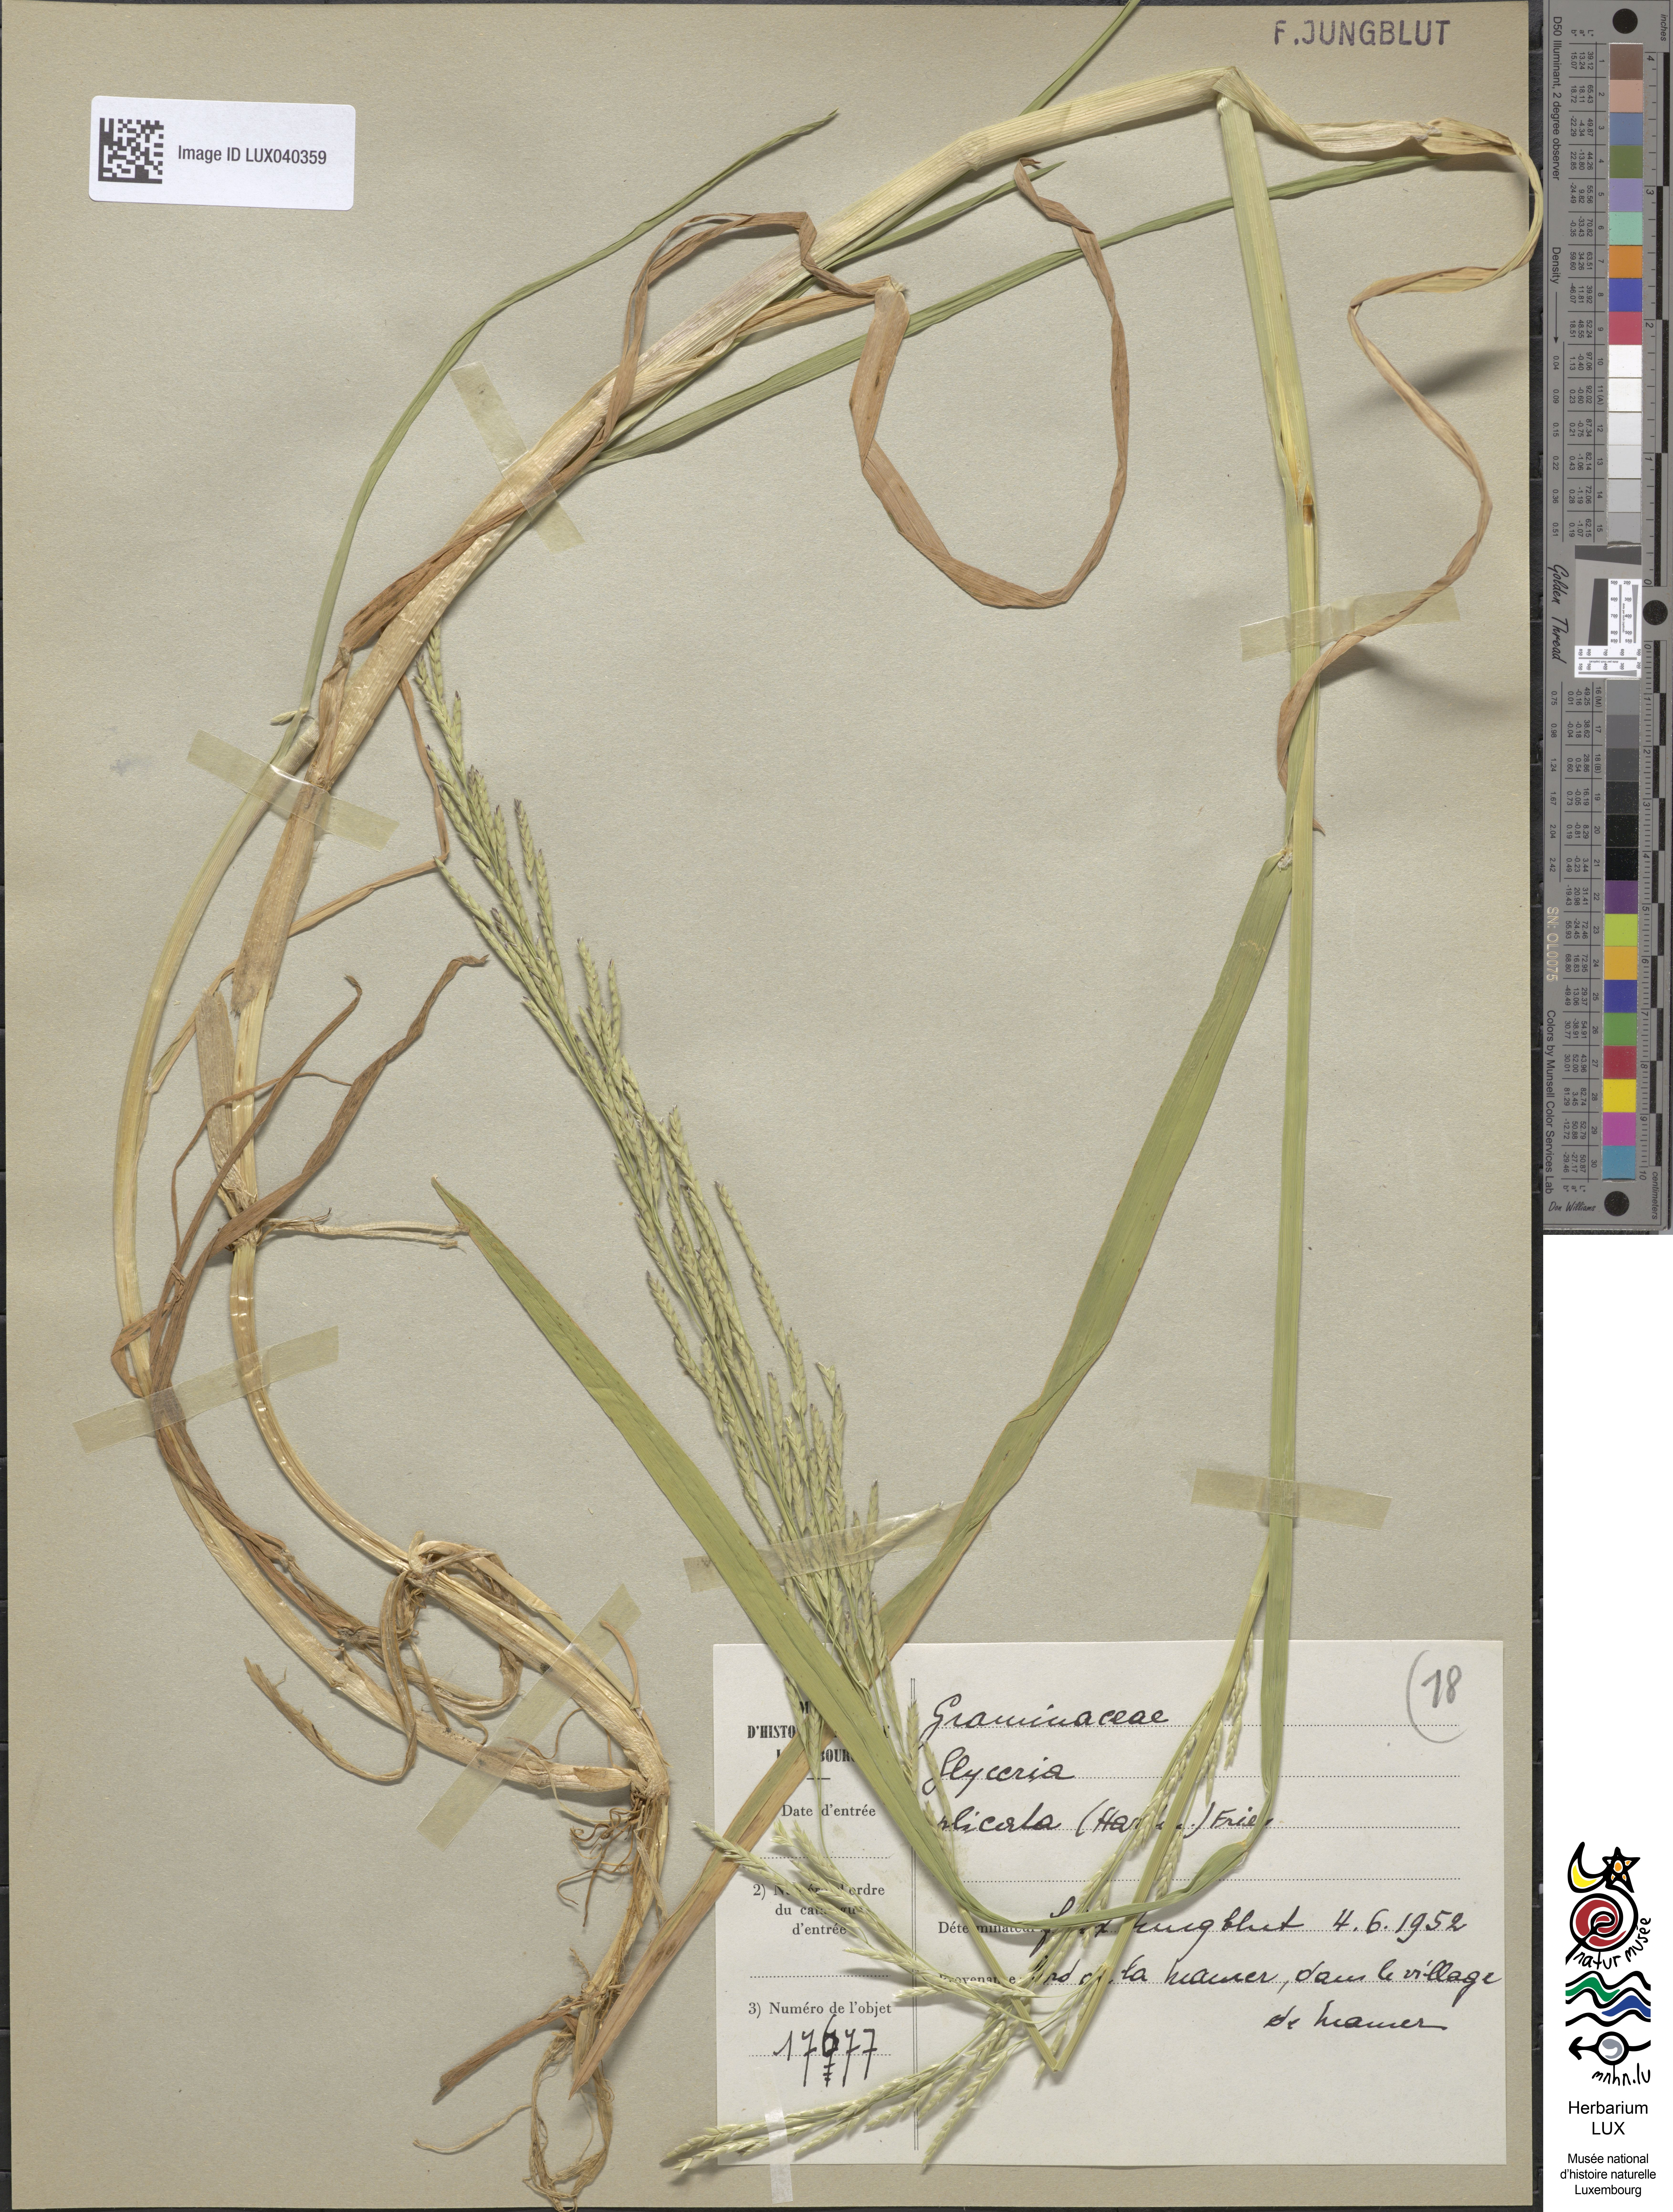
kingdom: Plantae
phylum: Tracheophyta
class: Liliopsida
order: Poales
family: Poaceae
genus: Glyceria
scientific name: Glyceria notata
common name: Plicate sweet-grass
